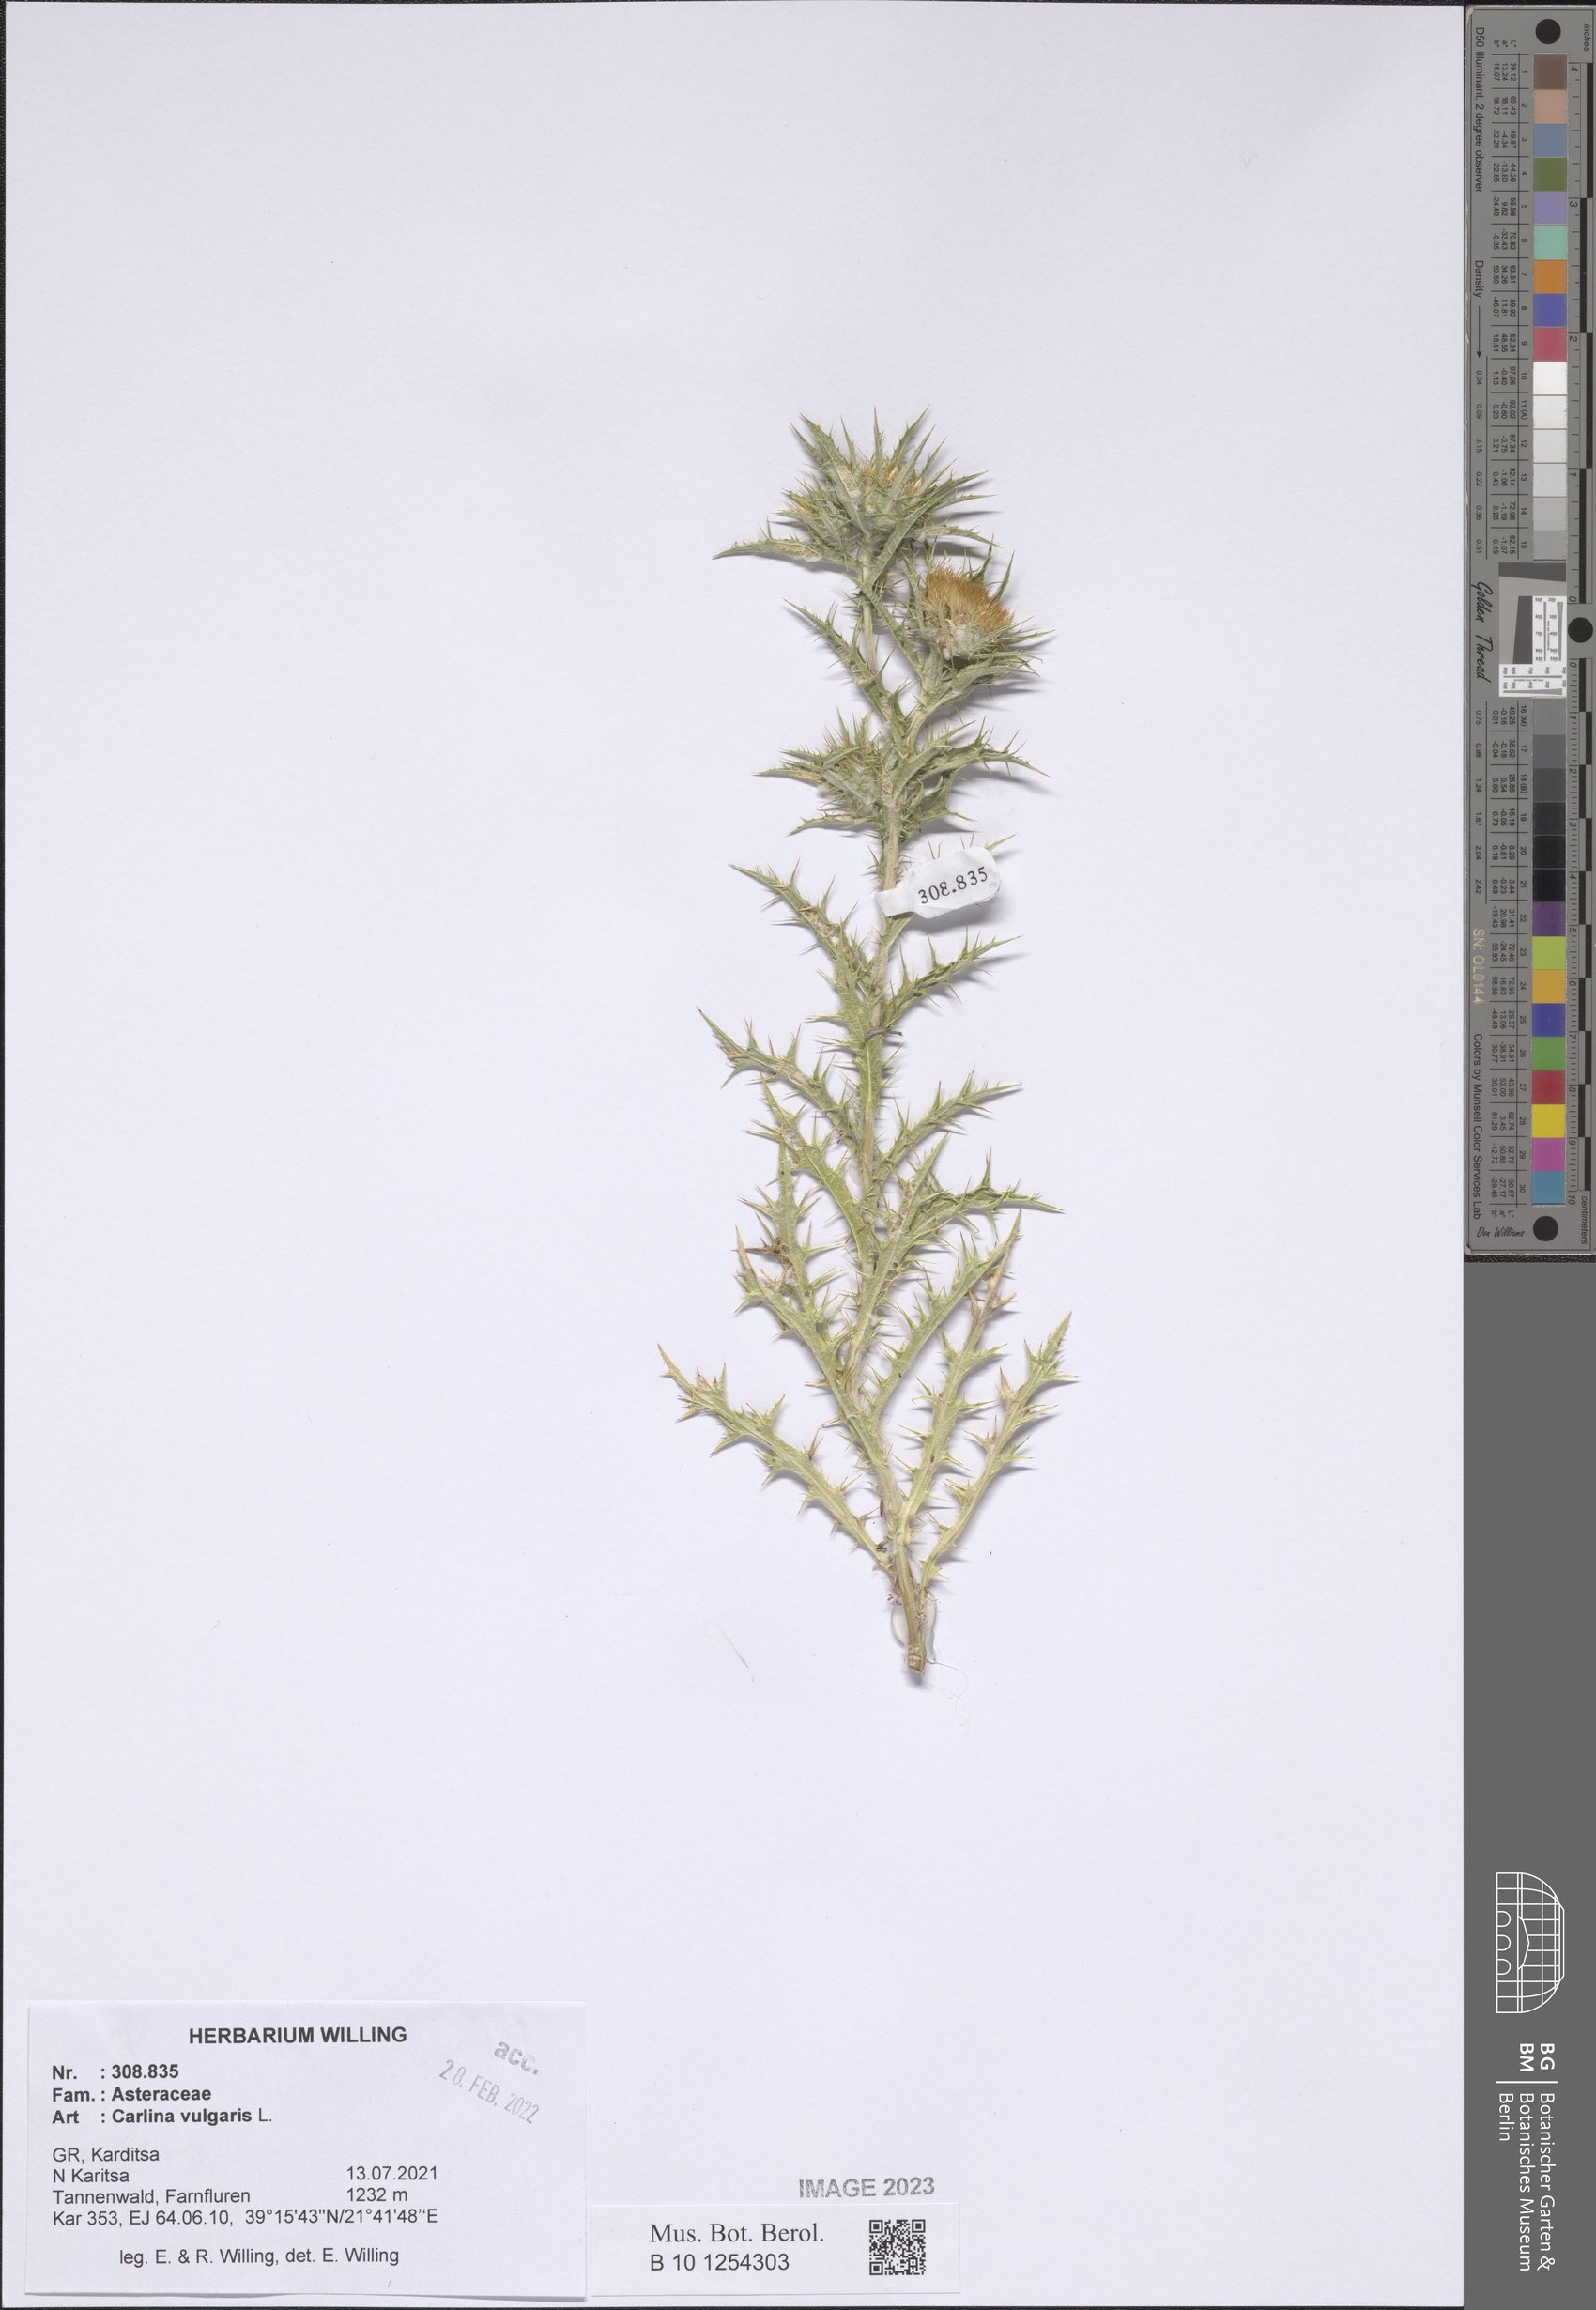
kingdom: Plantae
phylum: Tracheophyta
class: Magnoliopsida
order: Asterales
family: Asteraceae
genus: Carlina
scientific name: Carlina vulgaris
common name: Carline thistle
